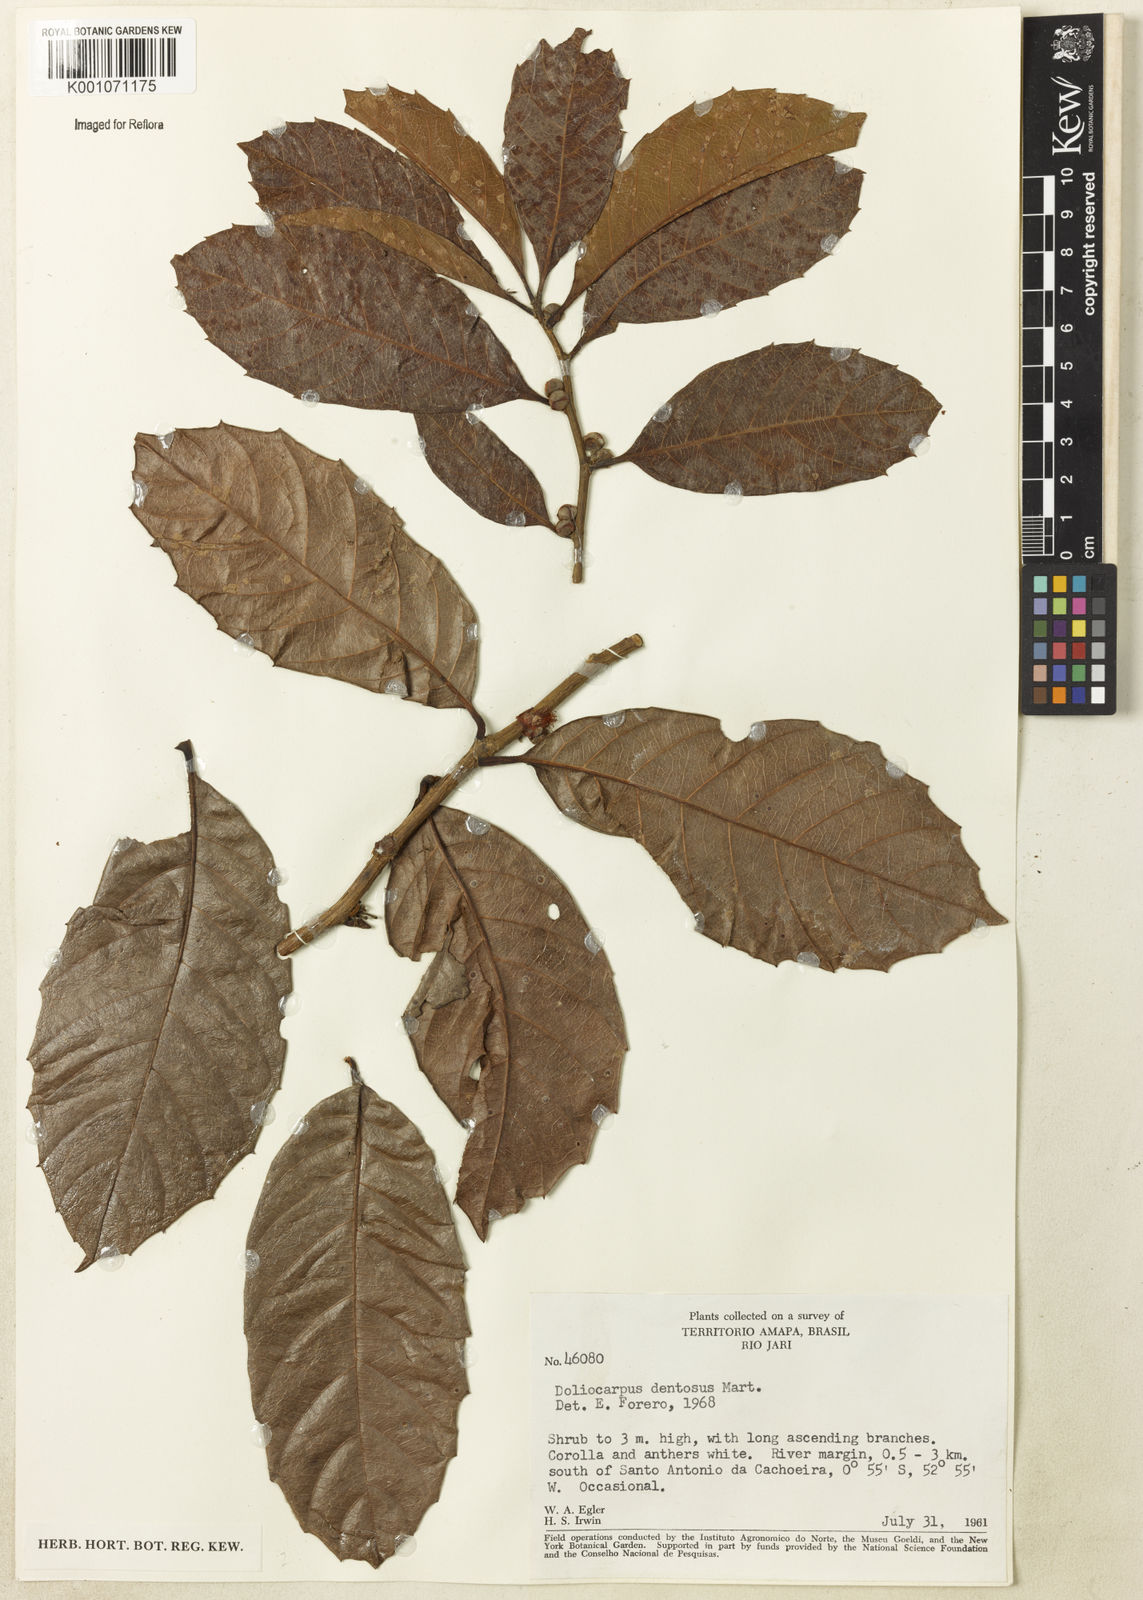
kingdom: Plantae
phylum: Tracheophyta
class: Magnoliopsida
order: Dilleniales
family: Dilleniaceae
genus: Doliocarpus
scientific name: Doliocarpus major
